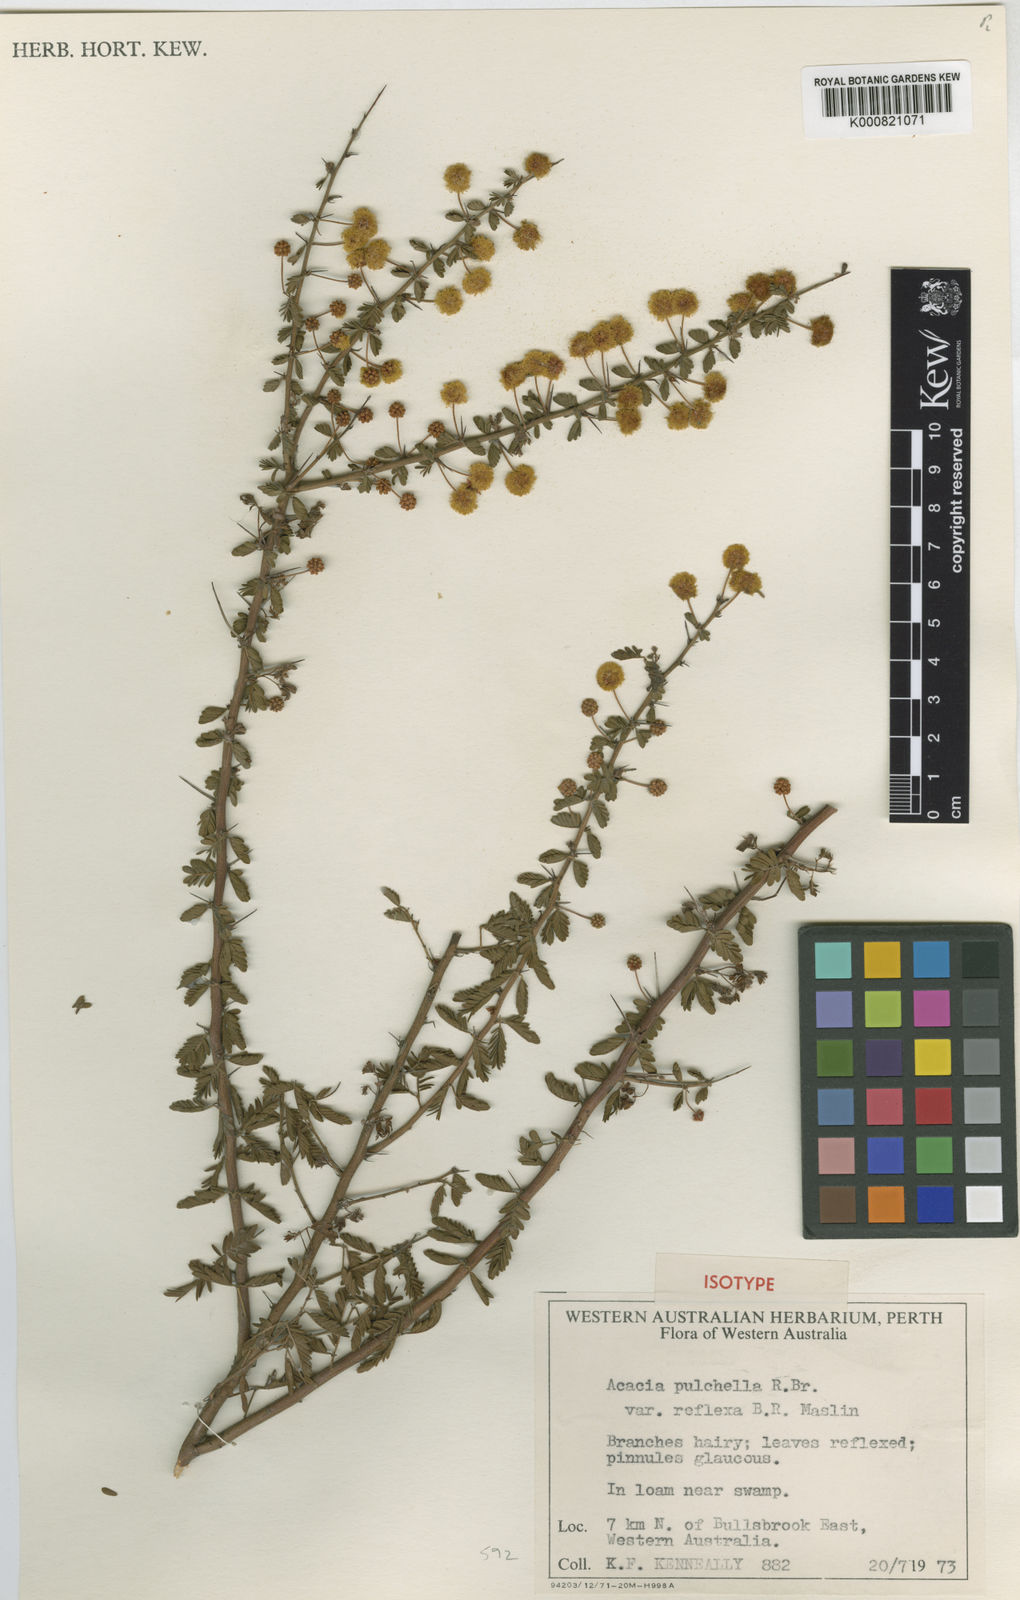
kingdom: Plantae
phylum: Tracheophyta
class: Magnoliopsida
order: Fabales
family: Fabaceae
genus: Acacia
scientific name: Acacia pulchella
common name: Prickly moses
